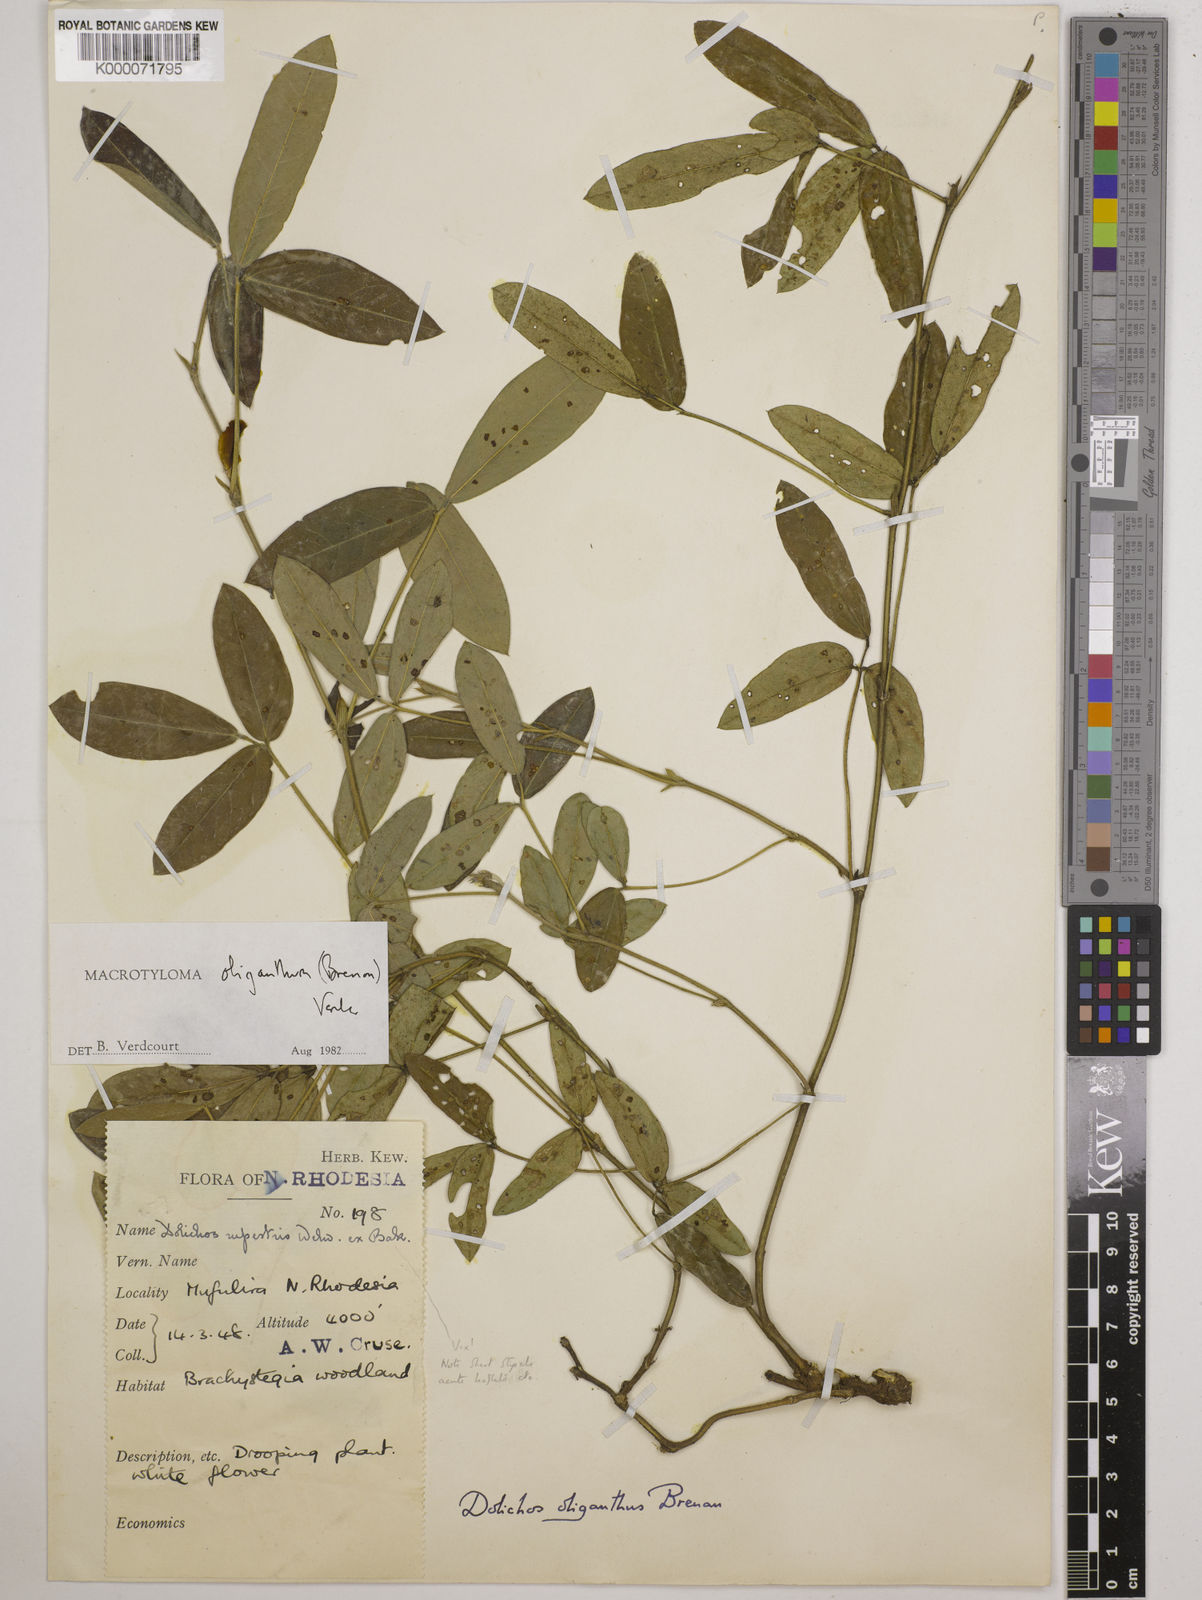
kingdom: Plantae
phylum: Tracheophyta
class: Magnoliopsida
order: Fabales
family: Fabaceae
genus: Macrotyloma
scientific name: Macrotyloma oliganthum
